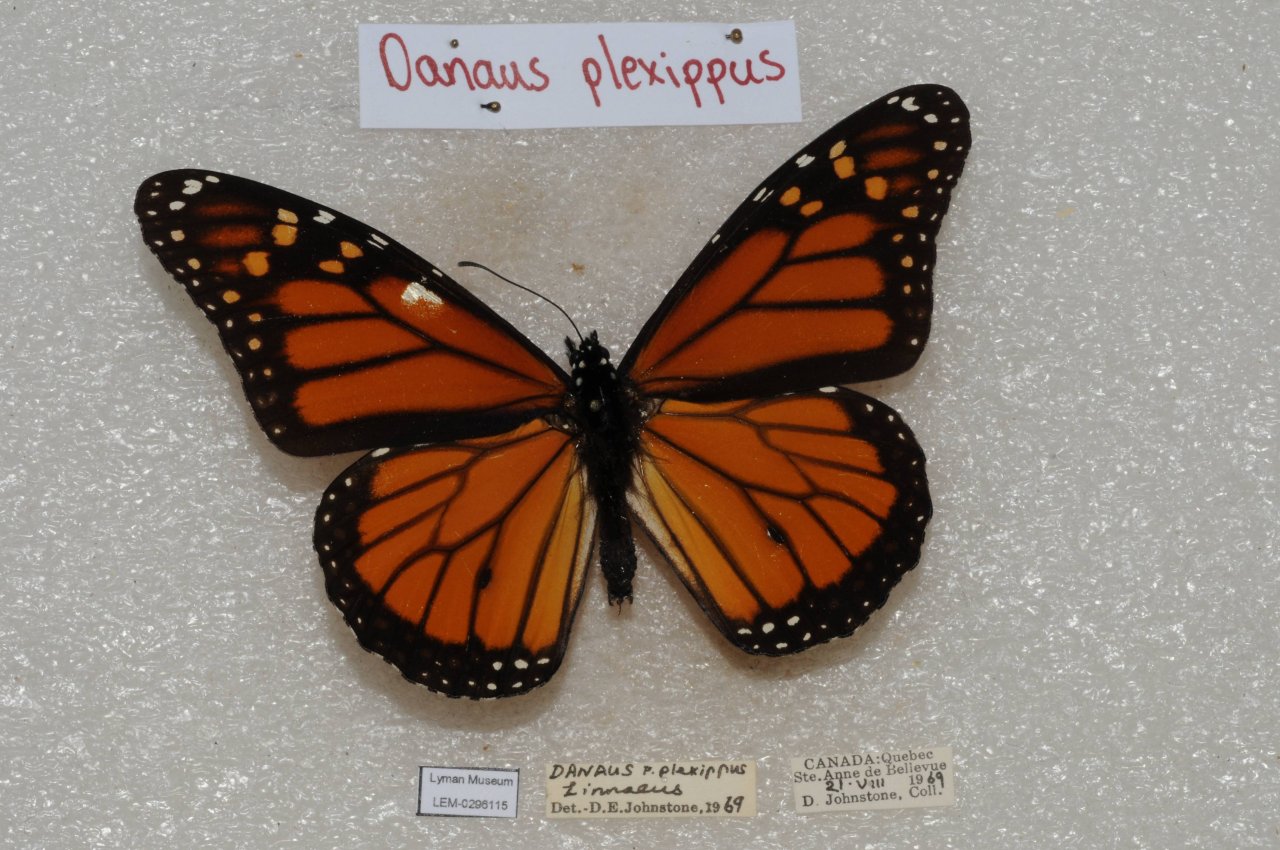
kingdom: Animalia
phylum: Arthropoda
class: Insecta
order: Lepidoptera
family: Nymphalidae
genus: Danaus
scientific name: Danaus plexippus
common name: Monarch
